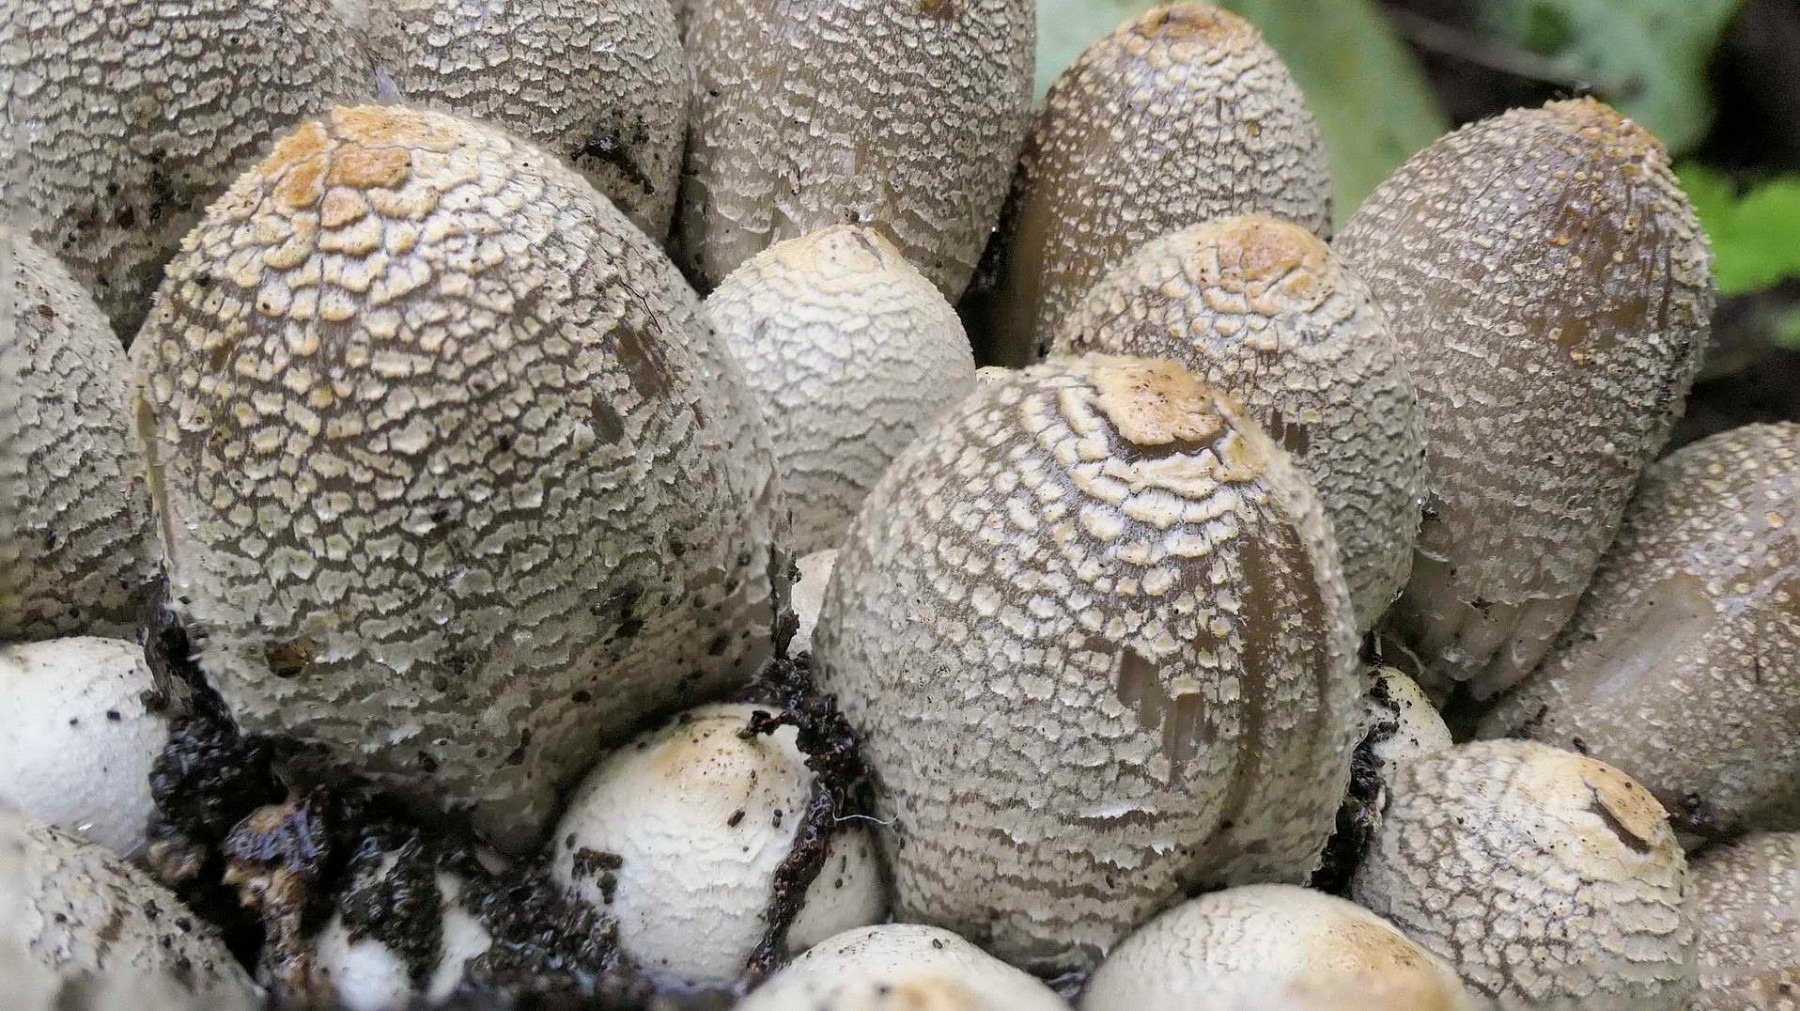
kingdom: Fungi
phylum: Basidiomycota
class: Agaricomycetes
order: Agaricales
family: Psathyrellaceae
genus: Coprinopsis
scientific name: Coprinopsis strossmayeri
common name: hyfestrengs-blækhat
